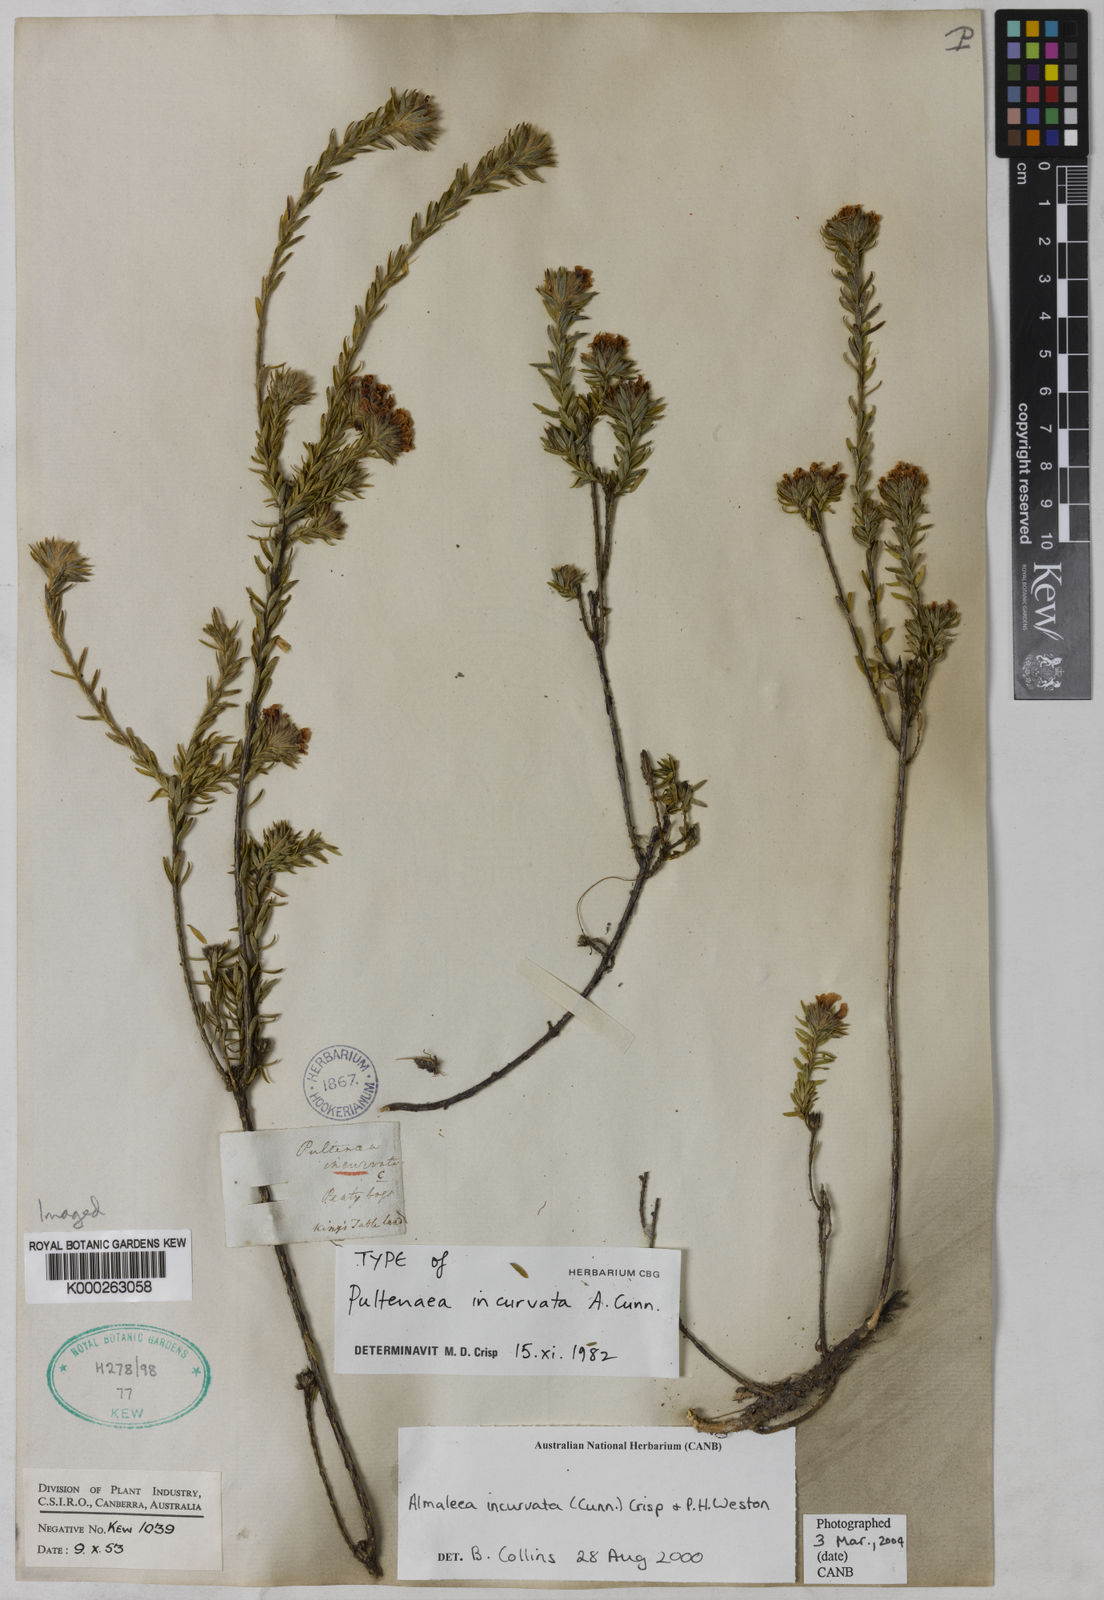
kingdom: Plantae
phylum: Tracheophyta
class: Magnoliopsida
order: Fabales
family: Fabaceae
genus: Almaleea
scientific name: Almaleea incurvata
